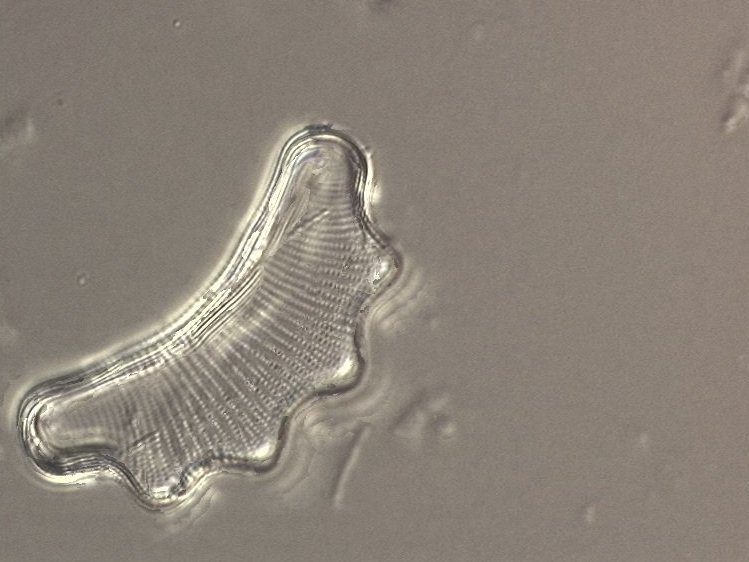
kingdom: Chromista
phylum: Ochrophyta
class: Bacillariophyceae
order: Eunotiales
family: Eunotiaceae
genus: Eunotia
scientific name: Eunotia
